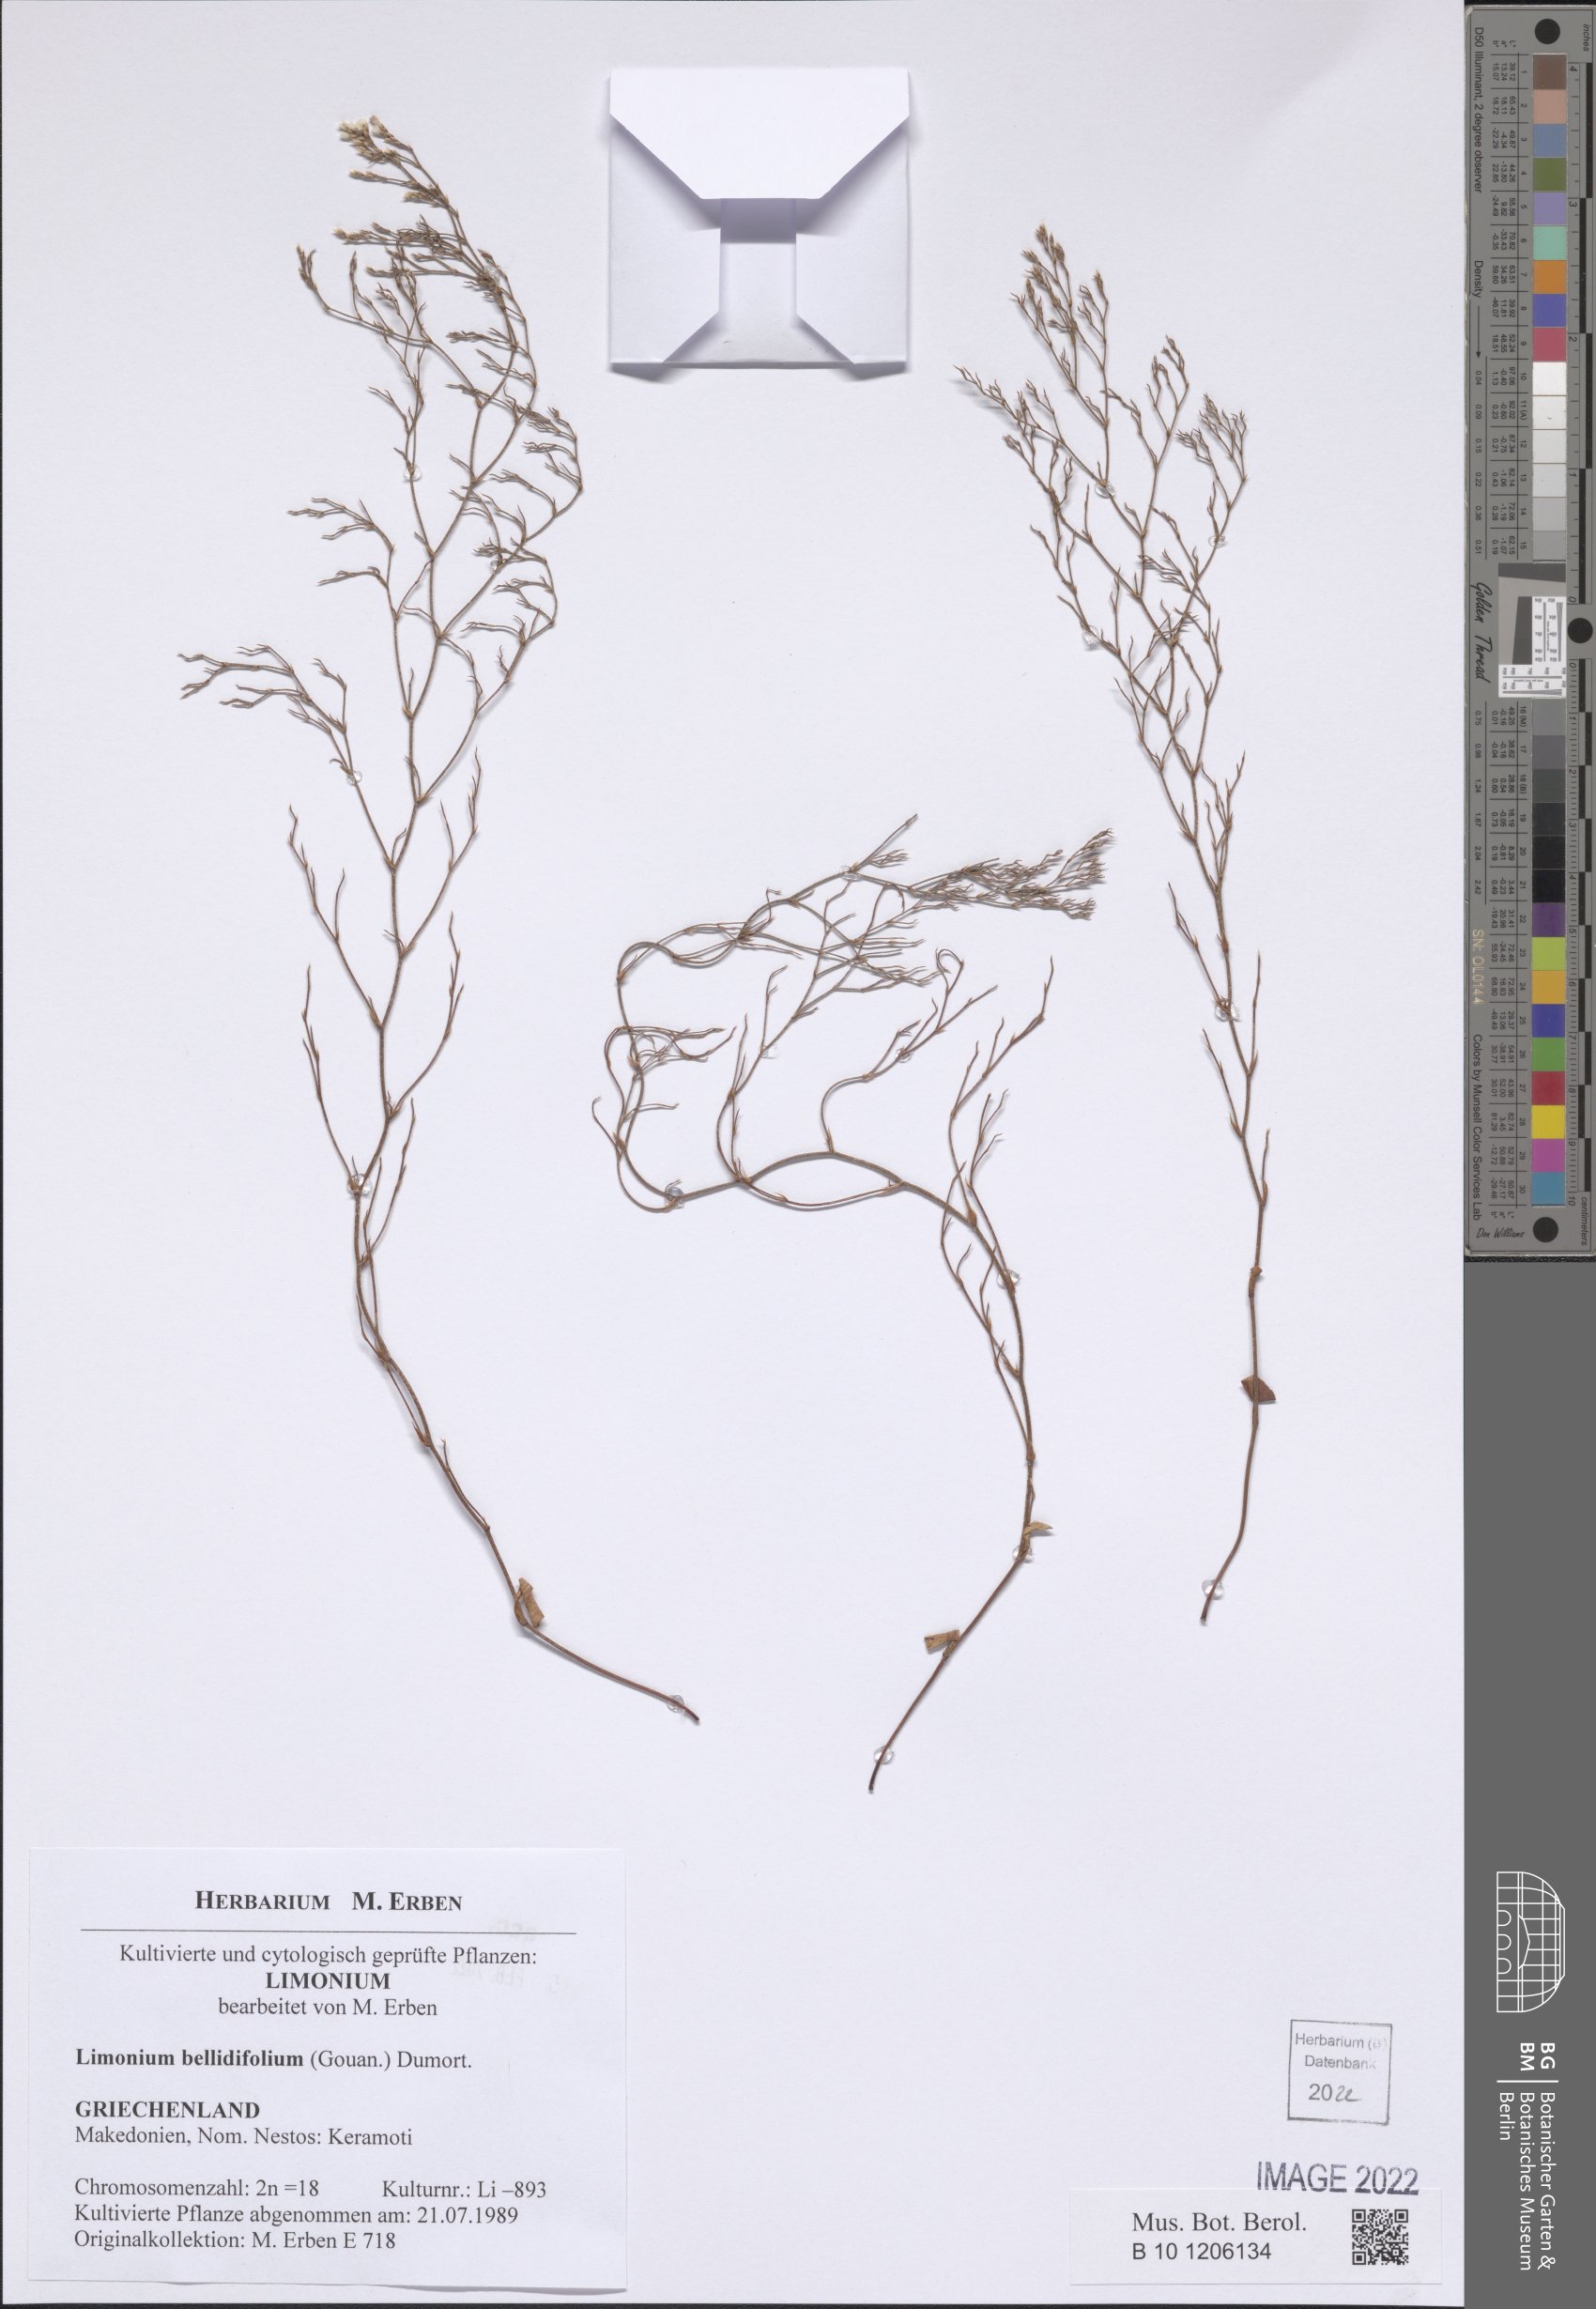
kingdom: Plantae
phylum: Tracheophyta
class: Magnoliopsida
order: Caryophyllales
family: Plumbaginaceae
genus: Limonium
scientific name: Limonium bellidifolium
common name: Matted sea-lavender
